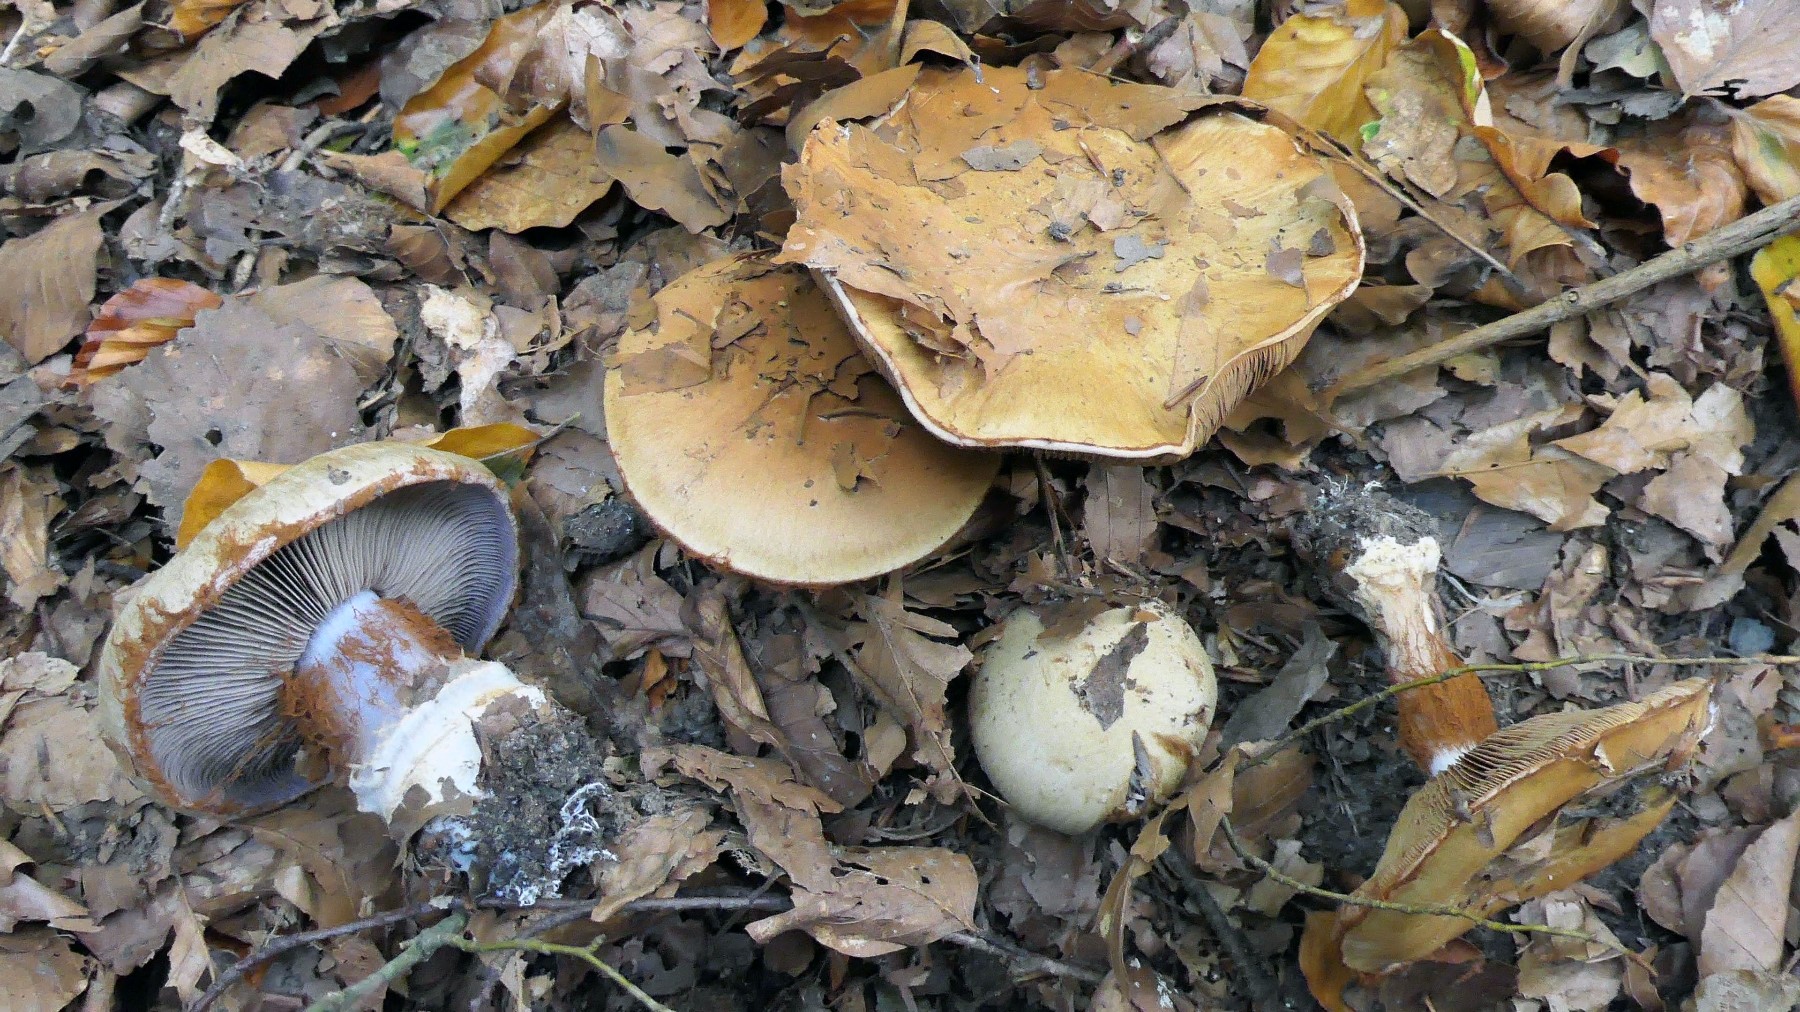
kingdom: Fungi
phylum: Basidiomycota
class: Agaricomycetes
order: Agaricales
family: Cortinariaceae
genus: Cortinarius
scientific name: Cortinarius anserinus
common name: bøge-slørhat
